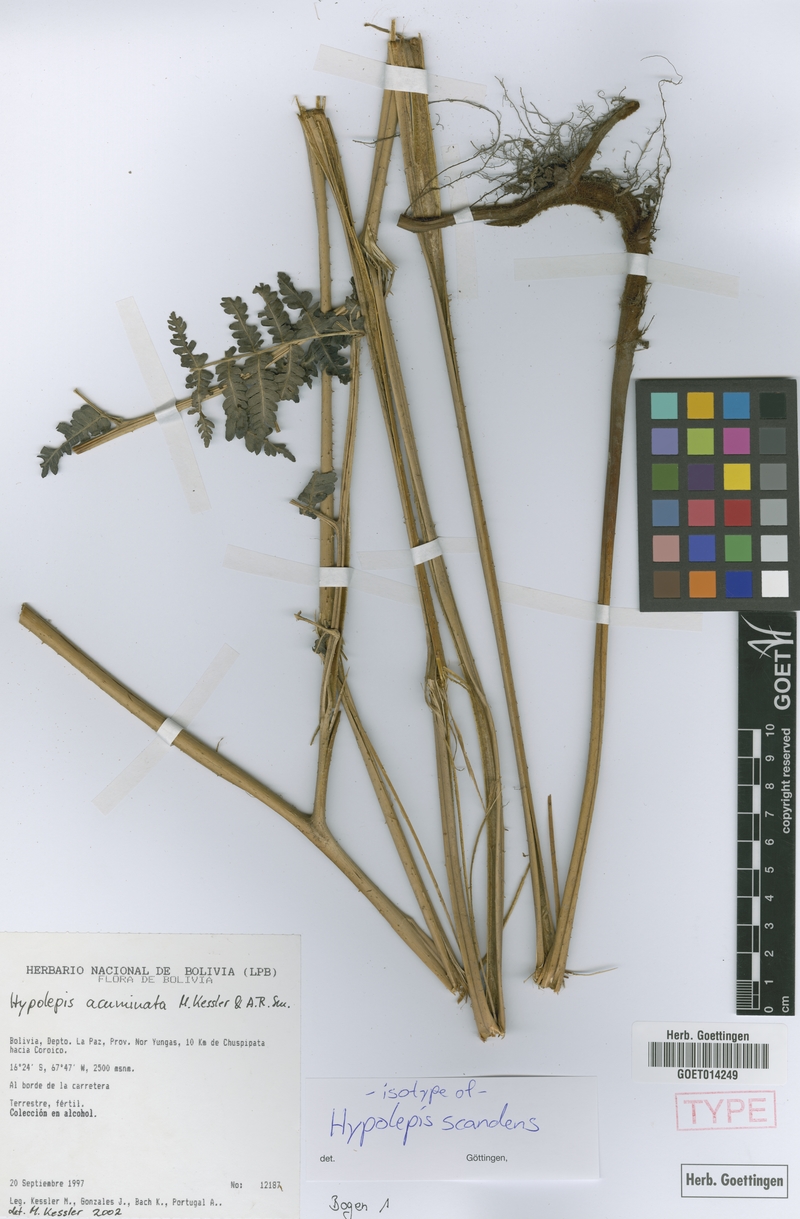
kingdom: Plantae
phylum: Tracheophyta
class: Polypodiopsida
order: Polypodiales
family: Dennstaedtiaceae
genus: Hypolepis
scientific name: Hypolepis scandens
